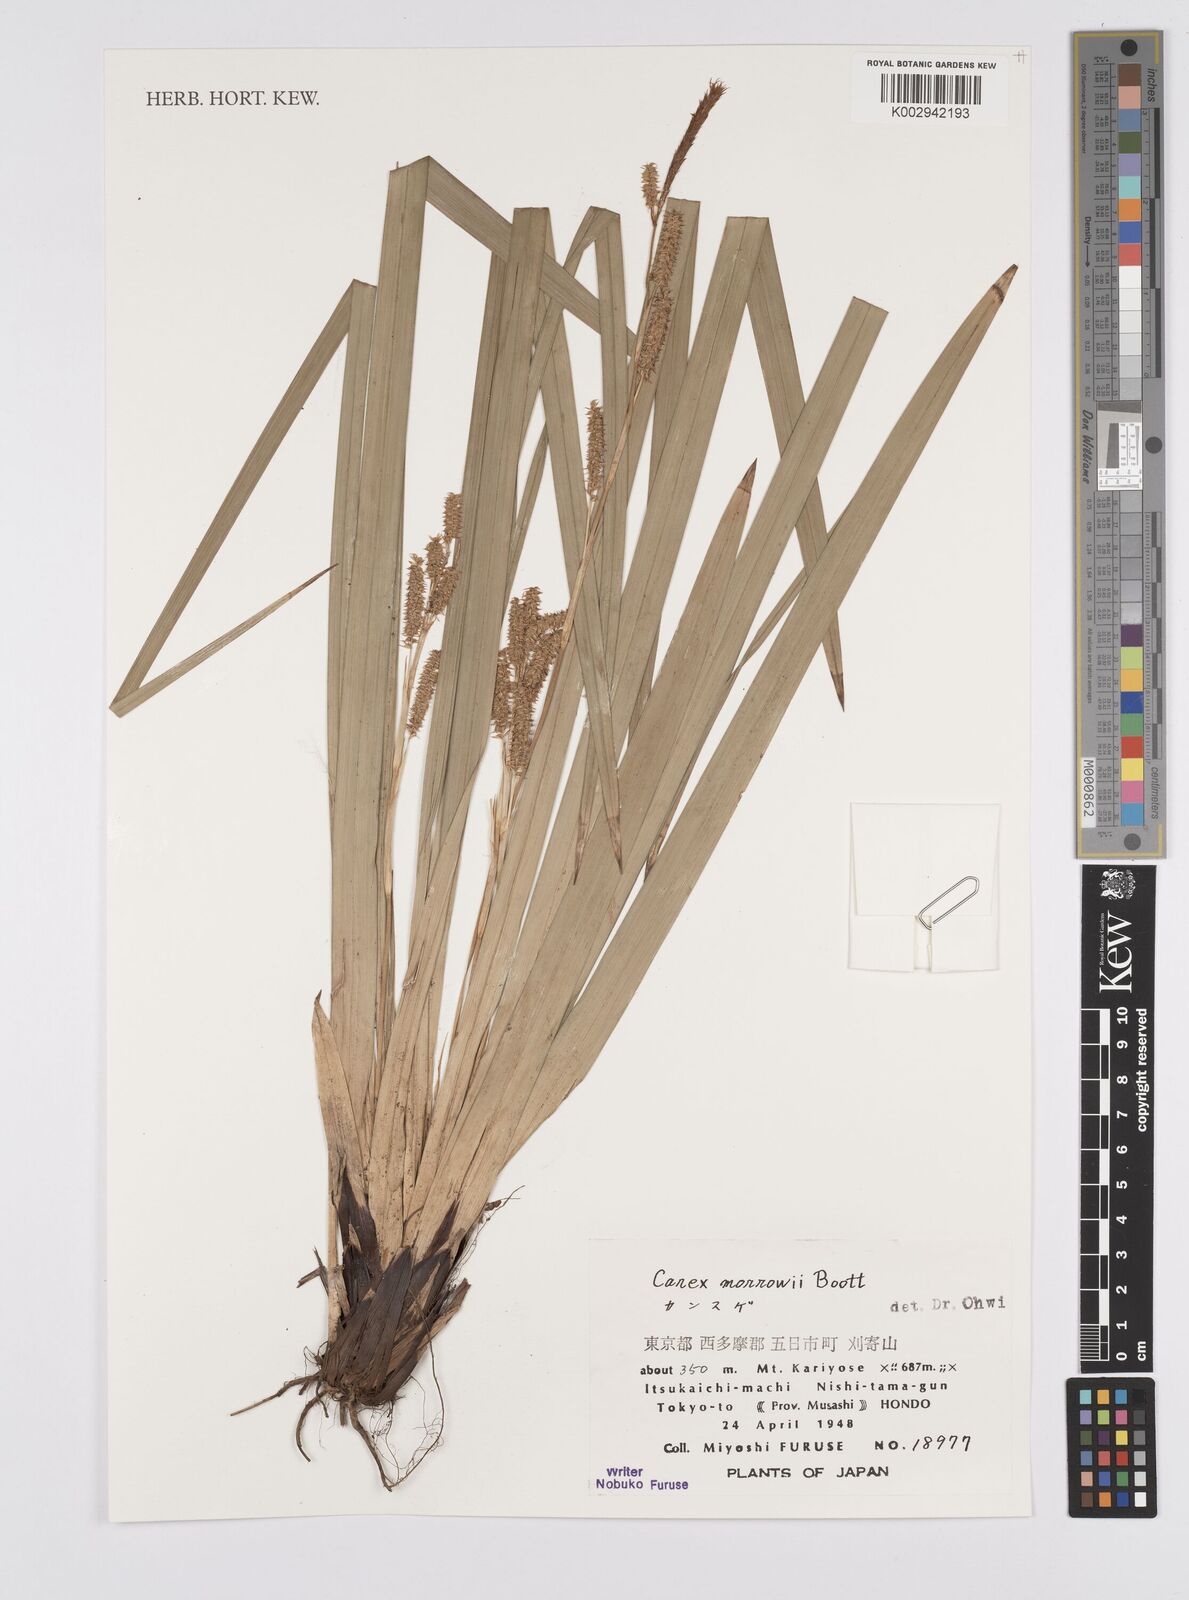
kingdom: Plantae
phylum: Tracheophyta
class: Liliopsida
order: Poales
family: Cyperaceae
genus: Carex
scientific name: Carex morrowii
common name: Japanese sedge
